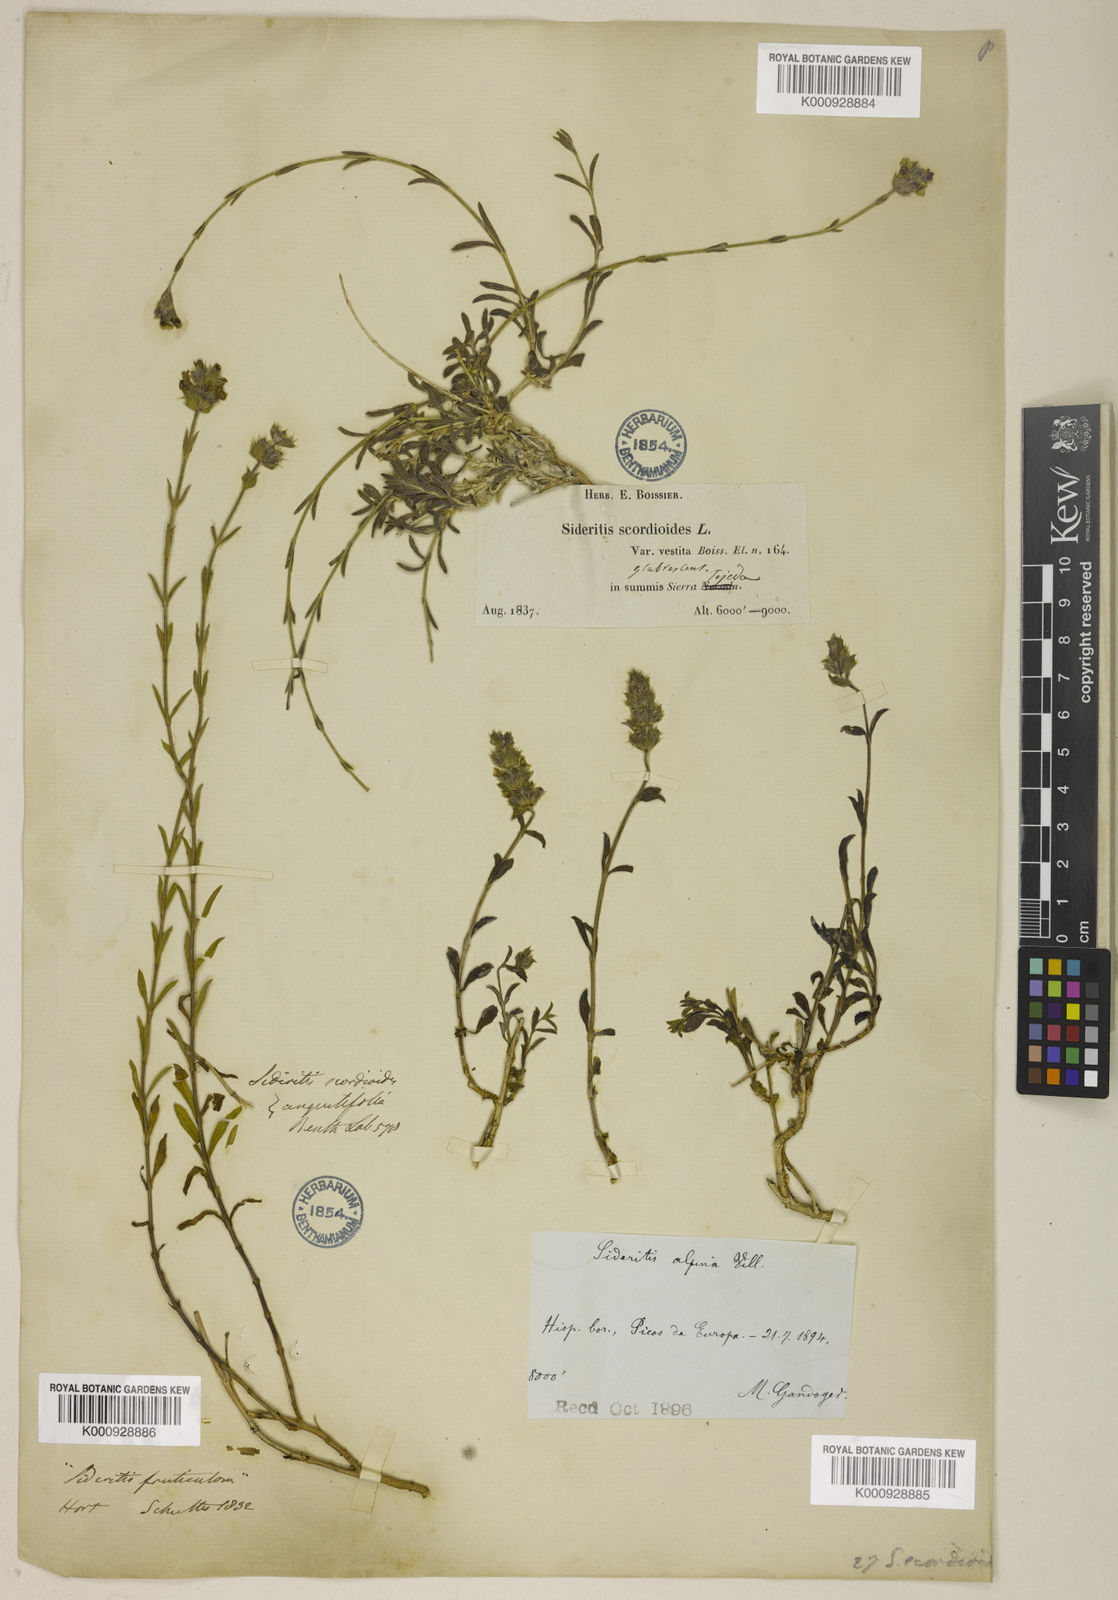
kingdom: Plantae
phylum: Tracheophyta
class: Magnoliopsida
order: Lamiales
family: Lamiaceae
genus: Sideritis
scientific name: Sideritis glacialis
